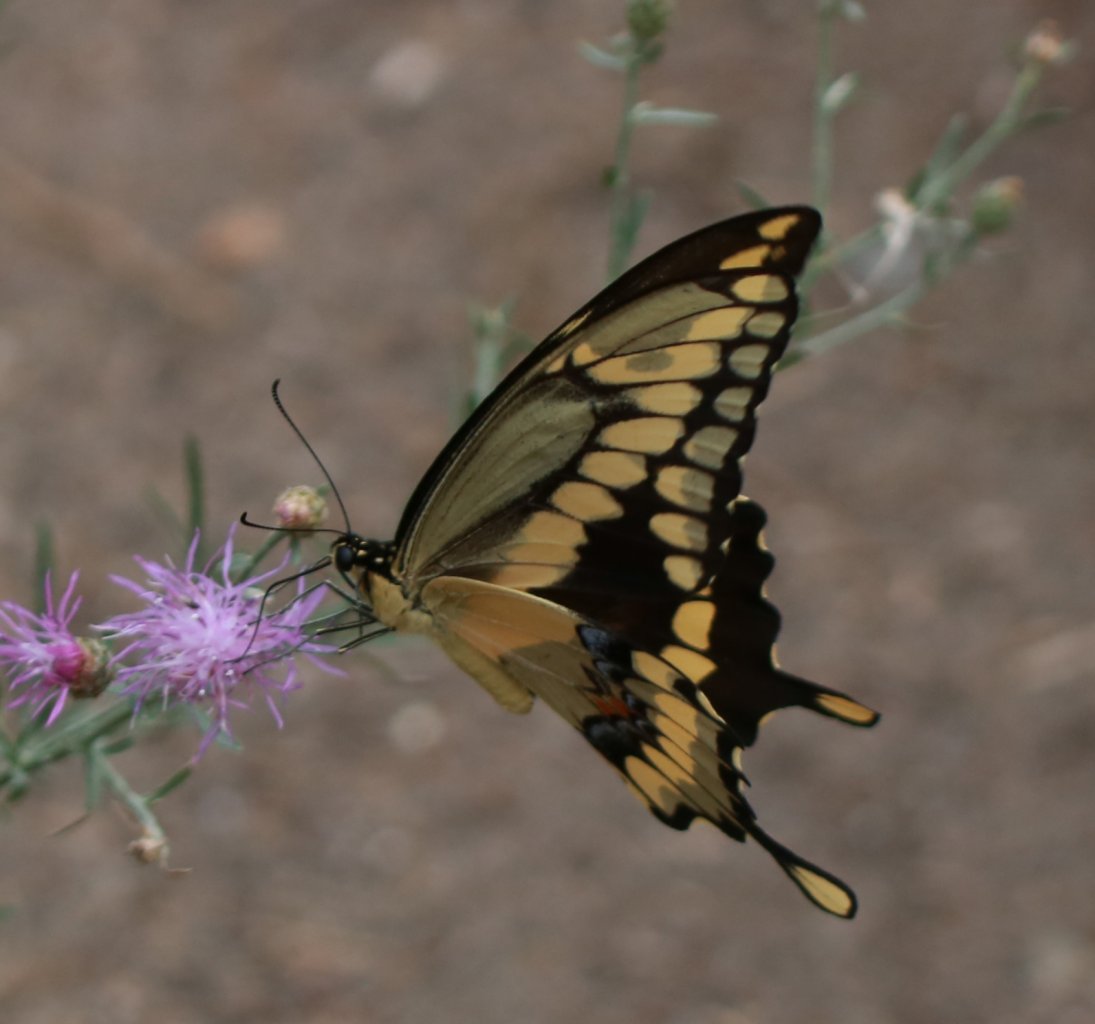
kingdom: Animalia
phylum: Arthropoda
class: Insecta
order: Lepidoptera
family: Papilionidae
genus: Papilio
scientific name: Papilio cresphontes
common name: Eastern Giant Swallowtail
